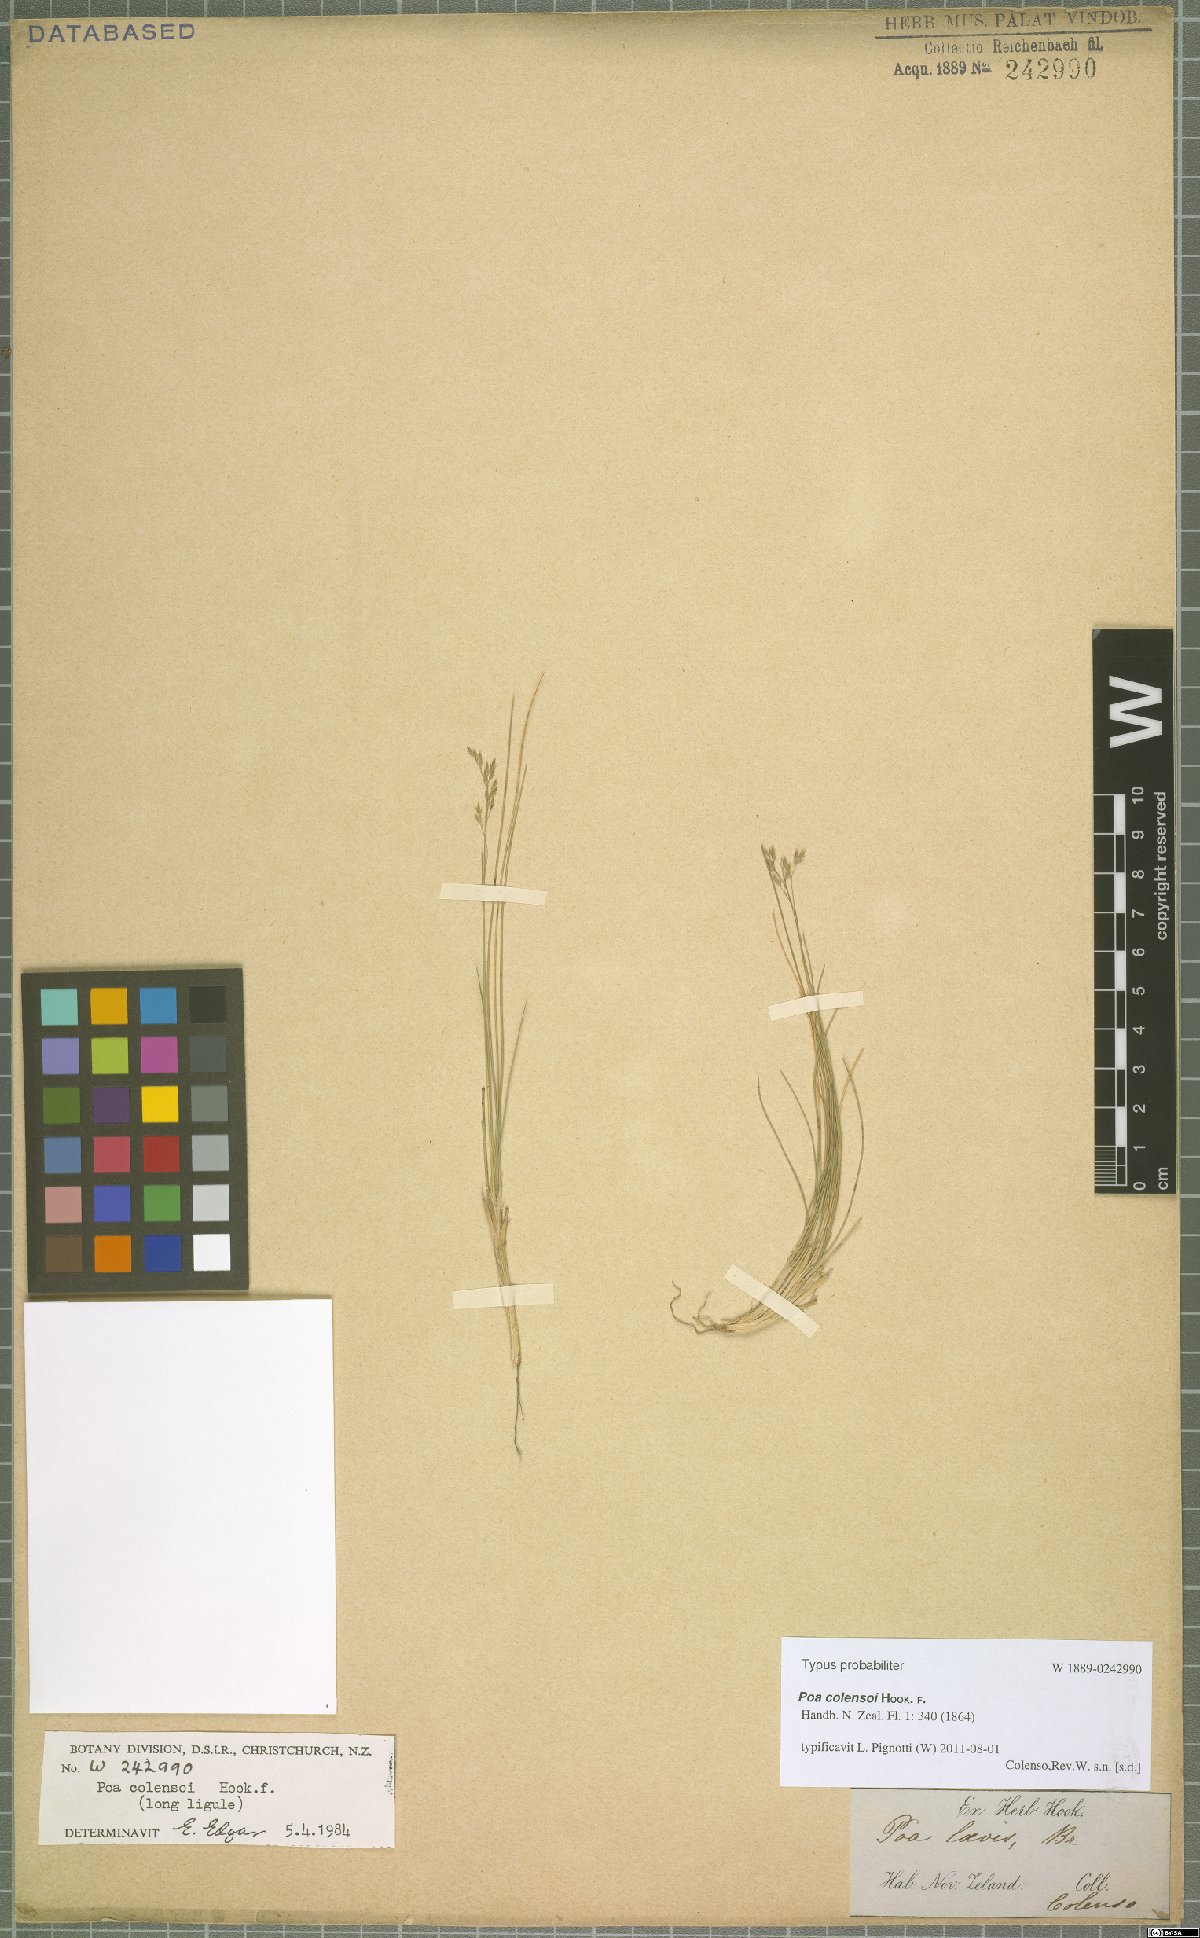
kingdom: Plantae
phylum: Tracheophyta
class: Liliopsida
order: Poales
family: Poaceae
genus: Poa
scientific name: Poa colensoi
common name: Blue tussock
